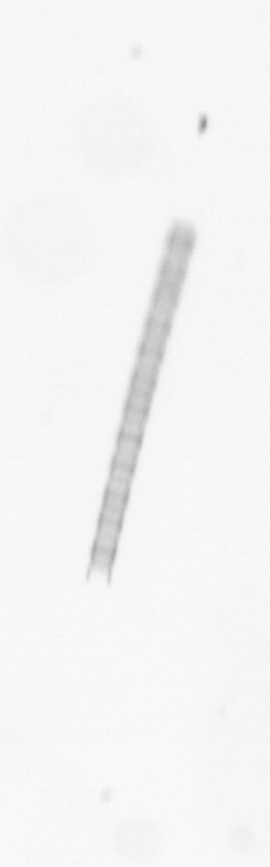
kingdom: Chromista
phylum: Ochrophyta
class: Bacillariophyceae
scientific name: Bacillariophyceae
